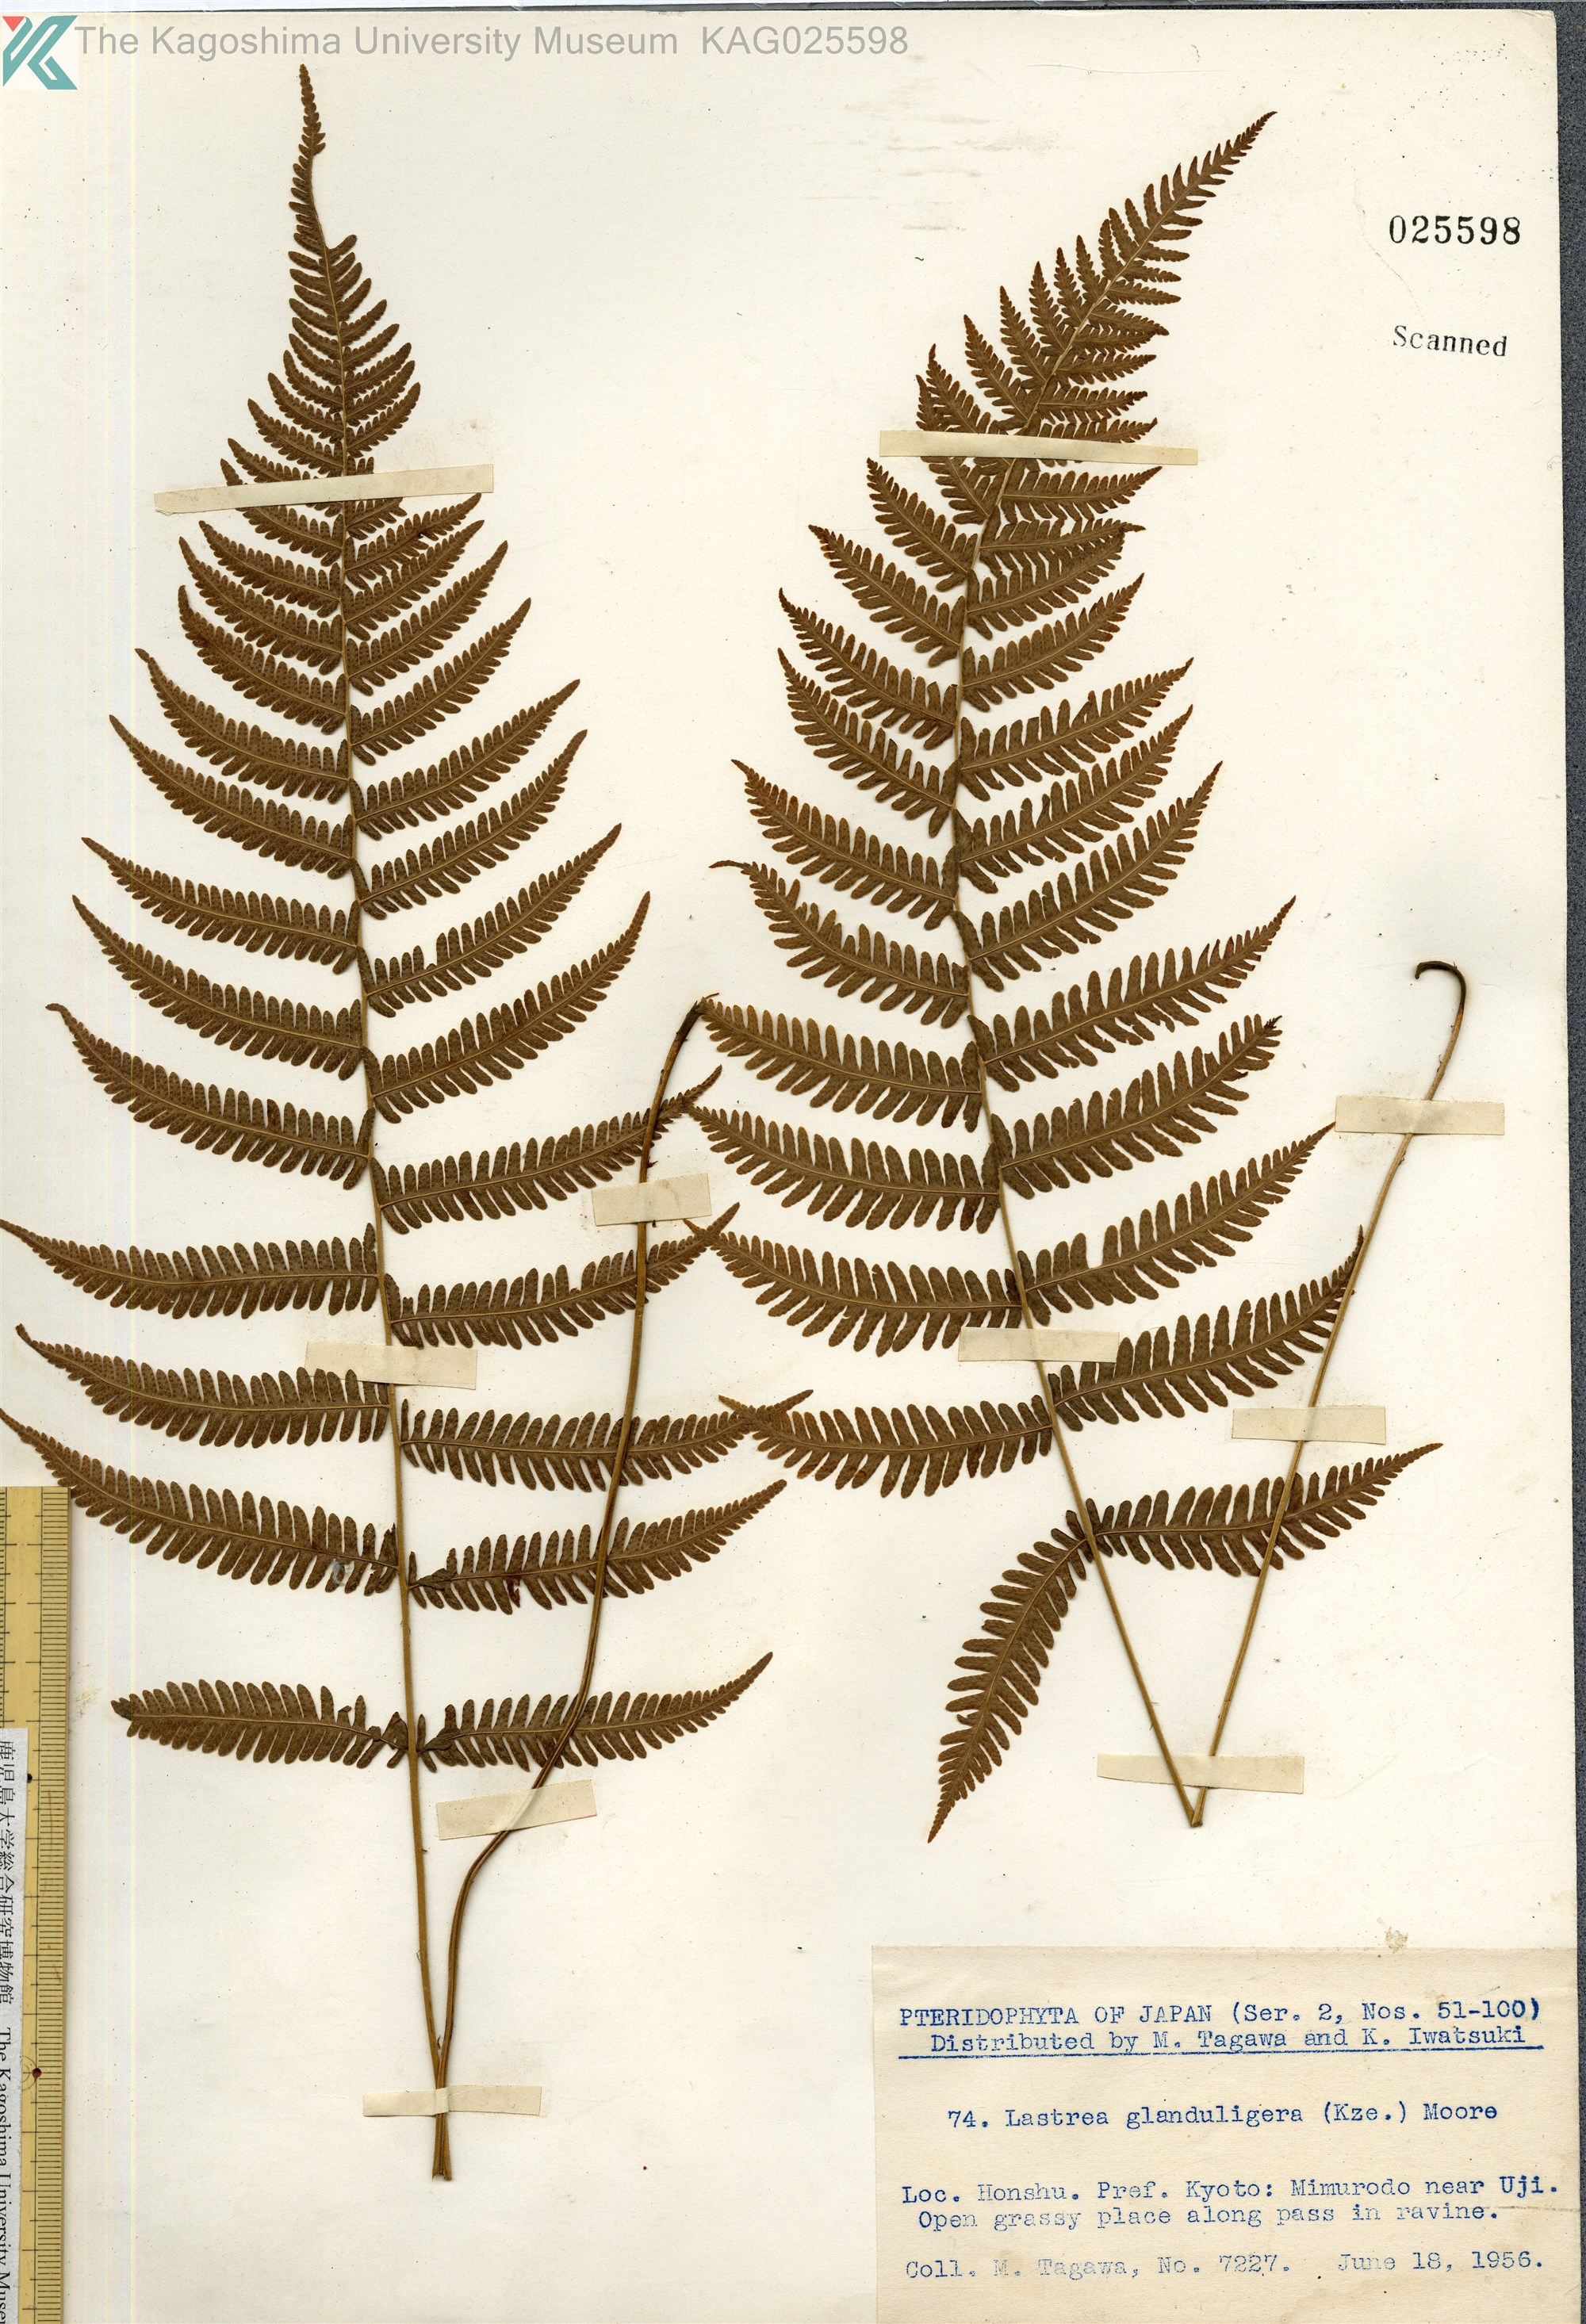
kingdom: Plantae
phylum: Tracheophyta
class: Polypodiopsida
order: Polypodiales
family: Thelypteridaceae
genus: Amauropelta
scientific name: Amauropelta glanduligera
